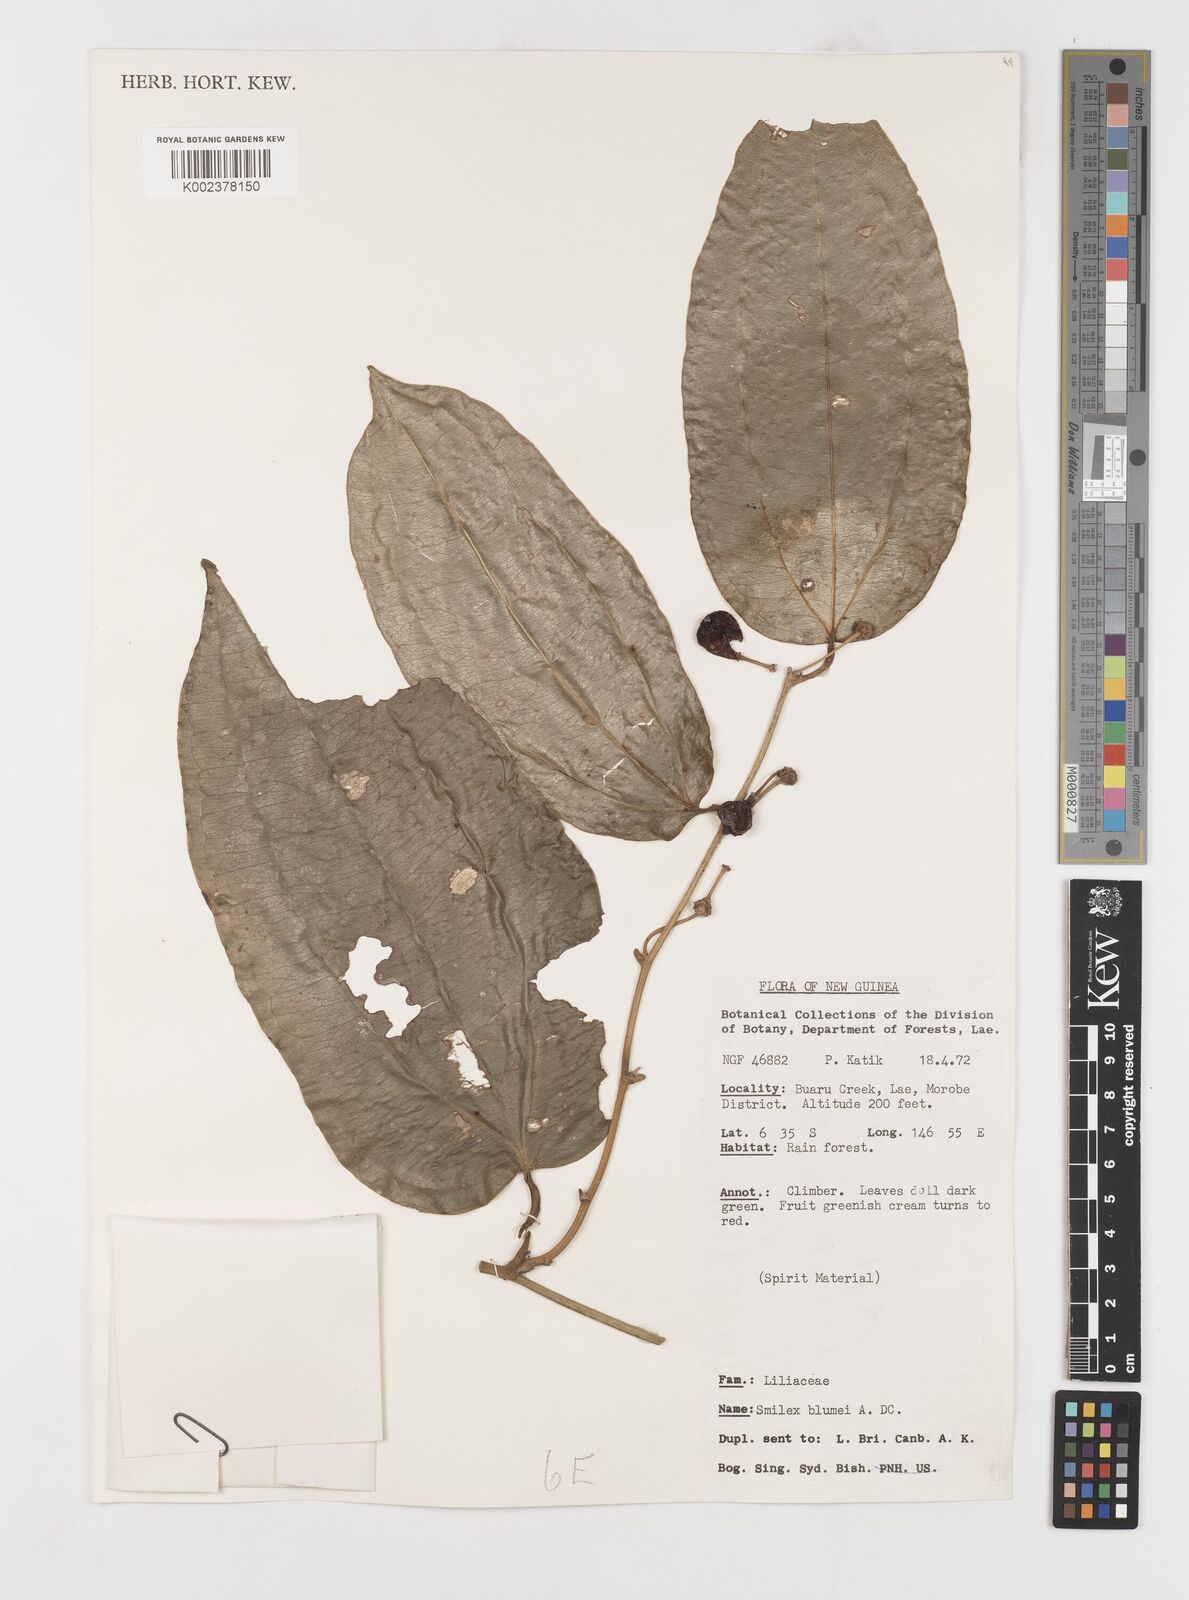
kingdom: Plantae
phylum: Tracheophyta
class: Liliopsida
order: Liliales
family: Smilacaceae
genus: Smilax
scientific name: Smilax blumei
